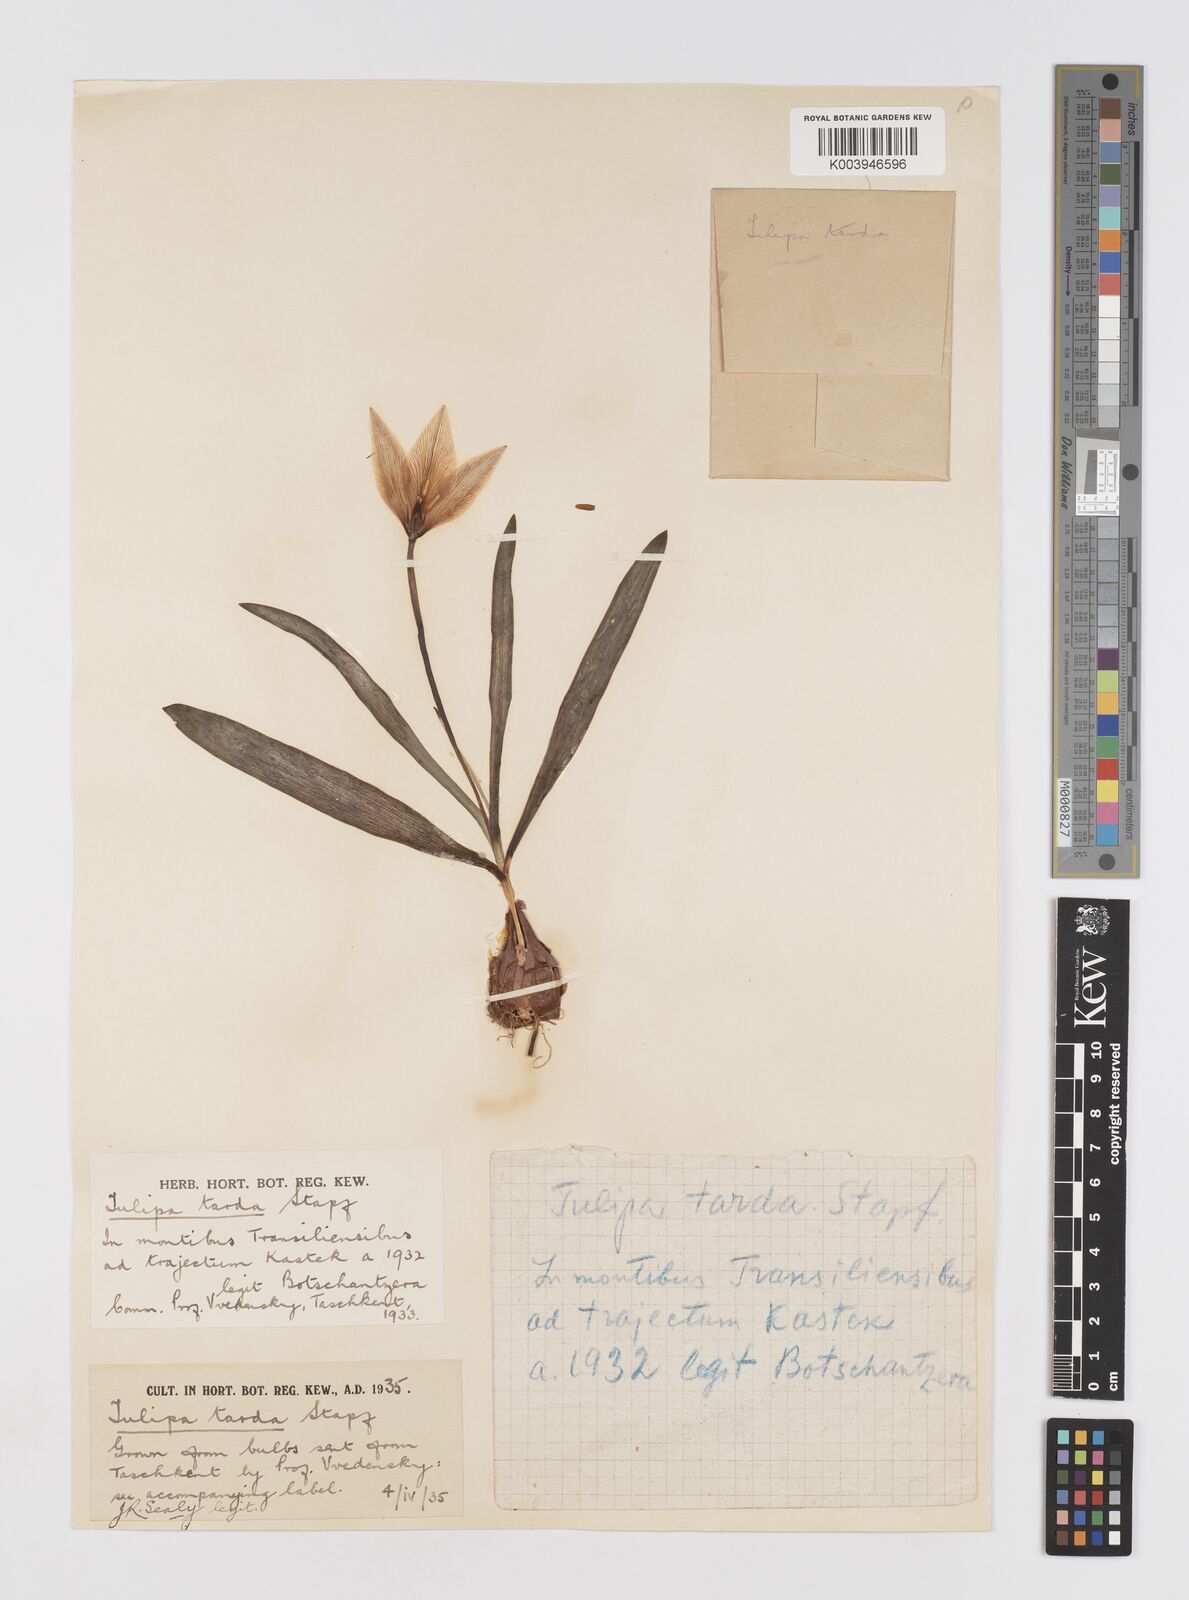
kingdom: Plantae
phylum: Tracheophyta
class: Liliopsida
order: Liliales
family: Liliaceae
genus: Tulipa
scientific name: Tulipa urumiensis
